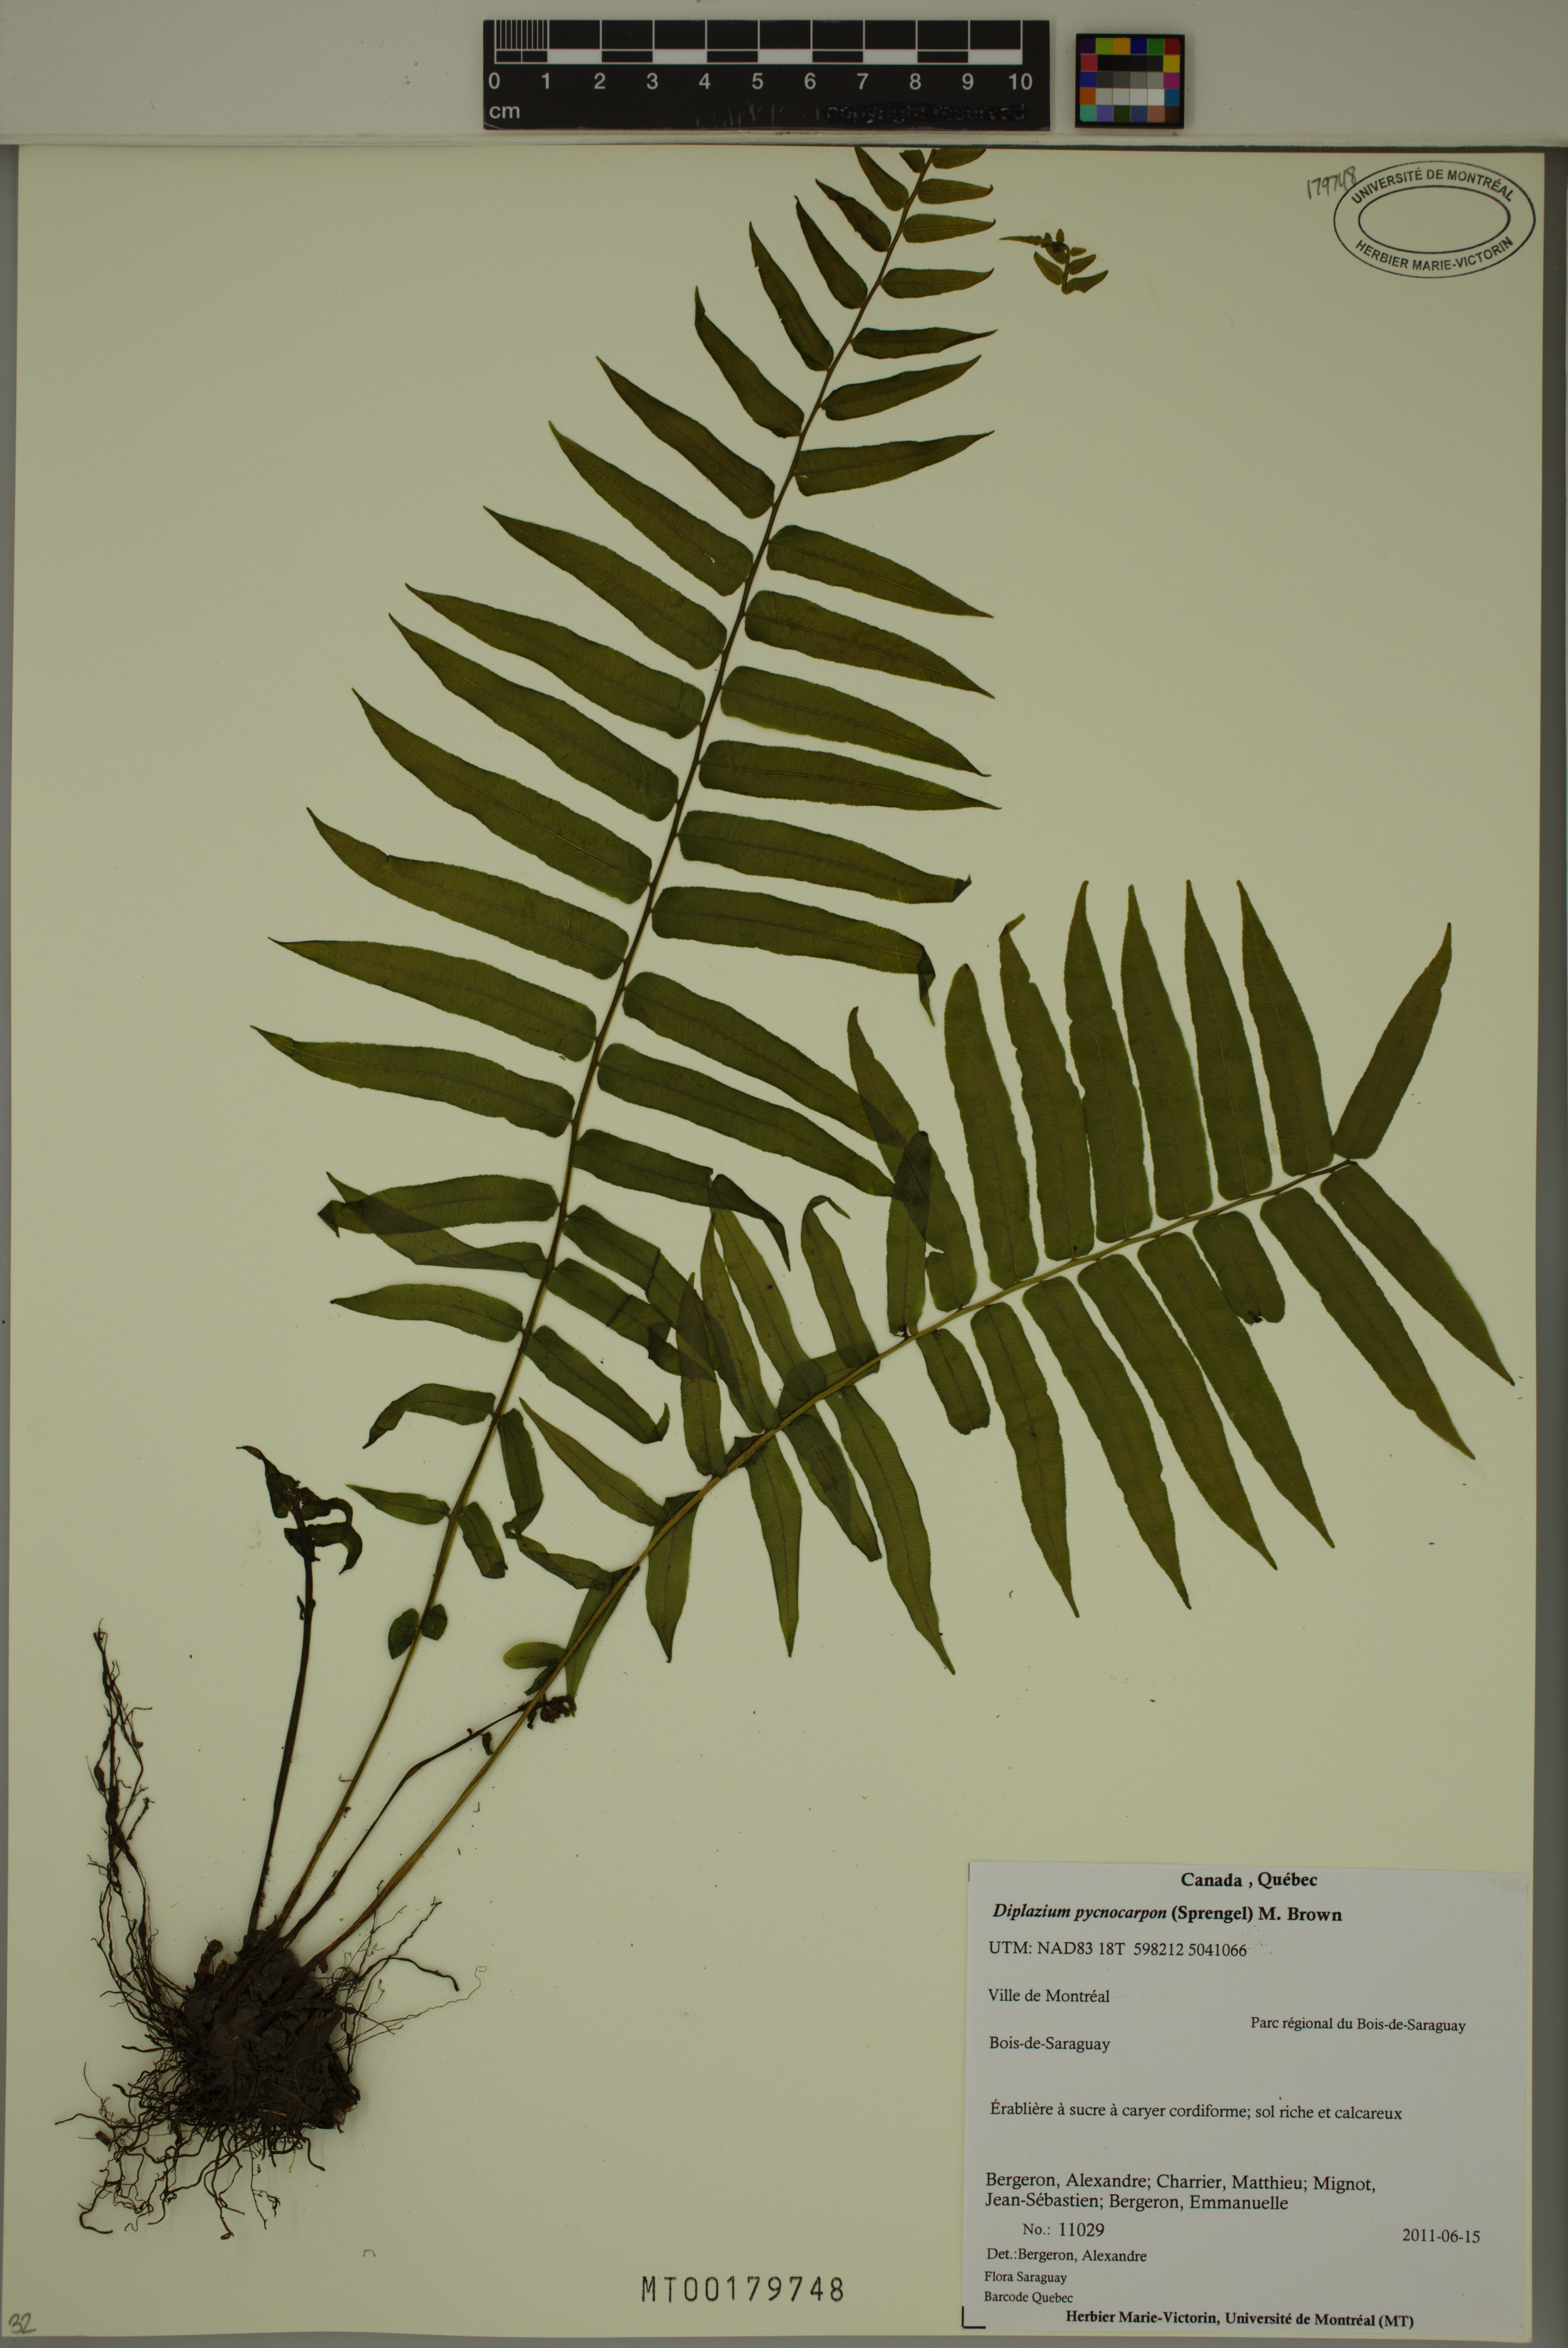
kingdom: Plantae
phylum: Tracheophyta
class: Polypodiopsida
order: Polypodiales
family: Diplaziopsidaceae
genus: Homalosorus
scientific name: Homalosorus pycnocarpos
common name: Glade fern
